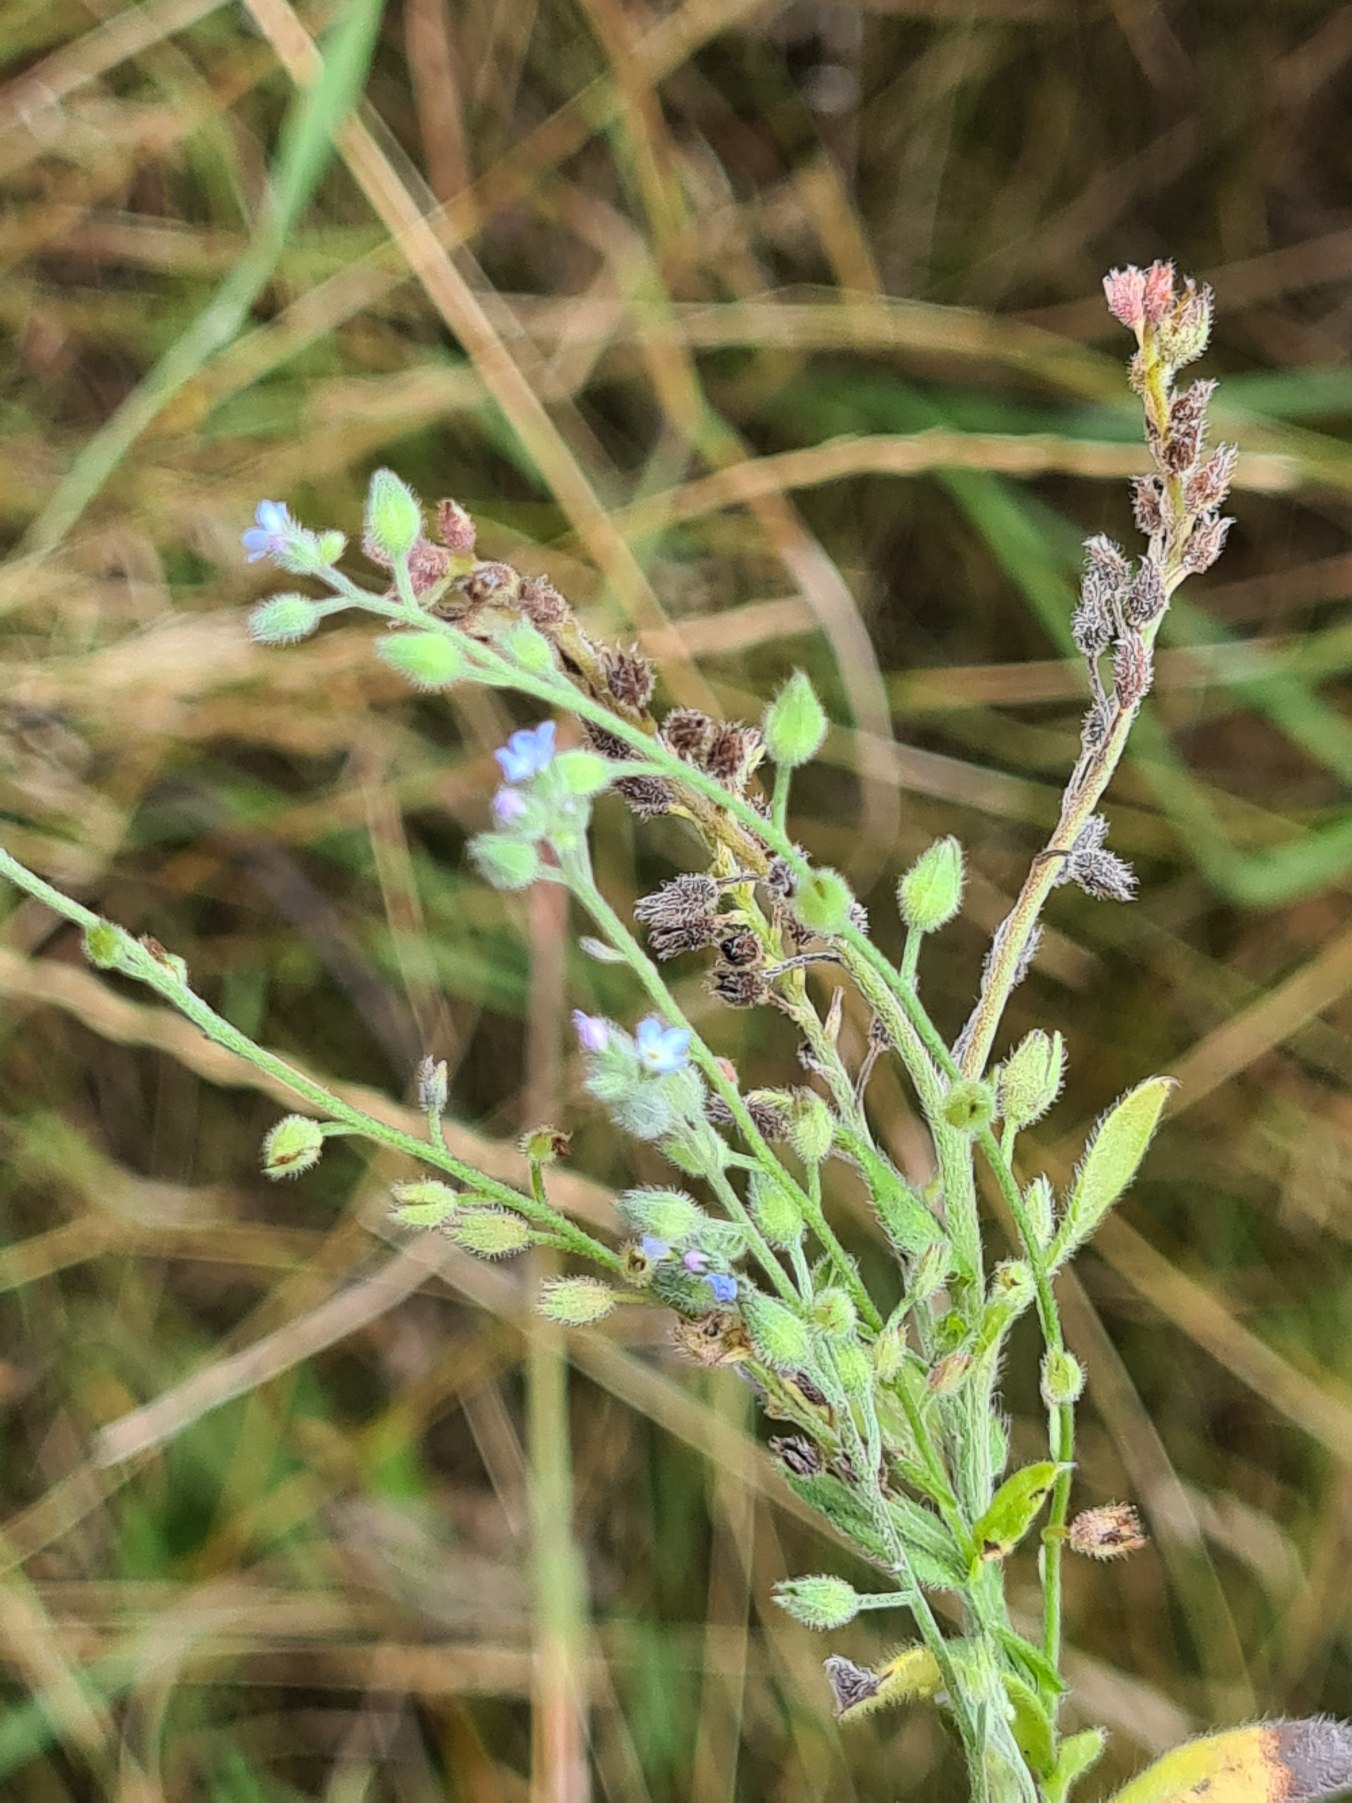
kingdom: Plantae
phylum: Tracheophyta
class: Magnoliopsida
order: Boraginales
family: Boraginaceae
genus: Myosotis
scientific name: Myosotis arvensis
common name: Mark-forglemmigej
